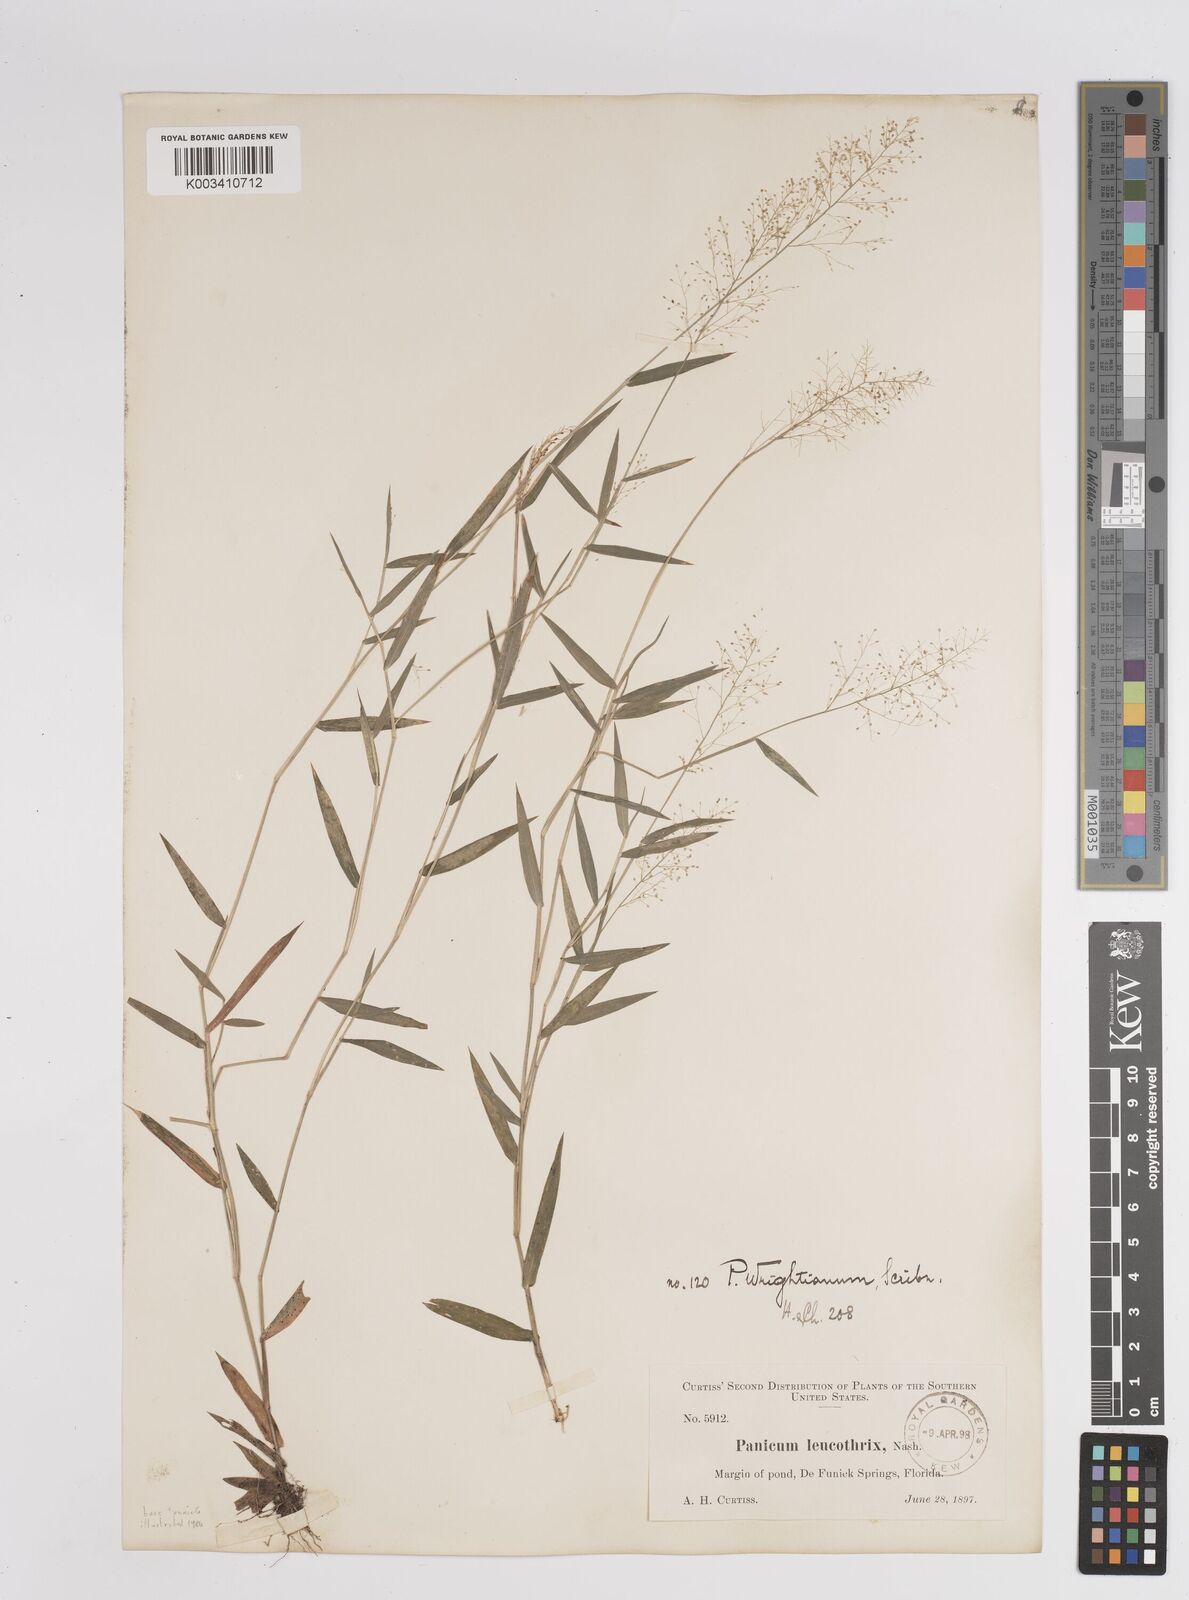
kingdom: Plantae
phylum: Tracheophyta
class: Liliopsida
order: Poales
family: Poaceae
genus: Dichanthelium
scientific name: Dichanthelium wrightianum
